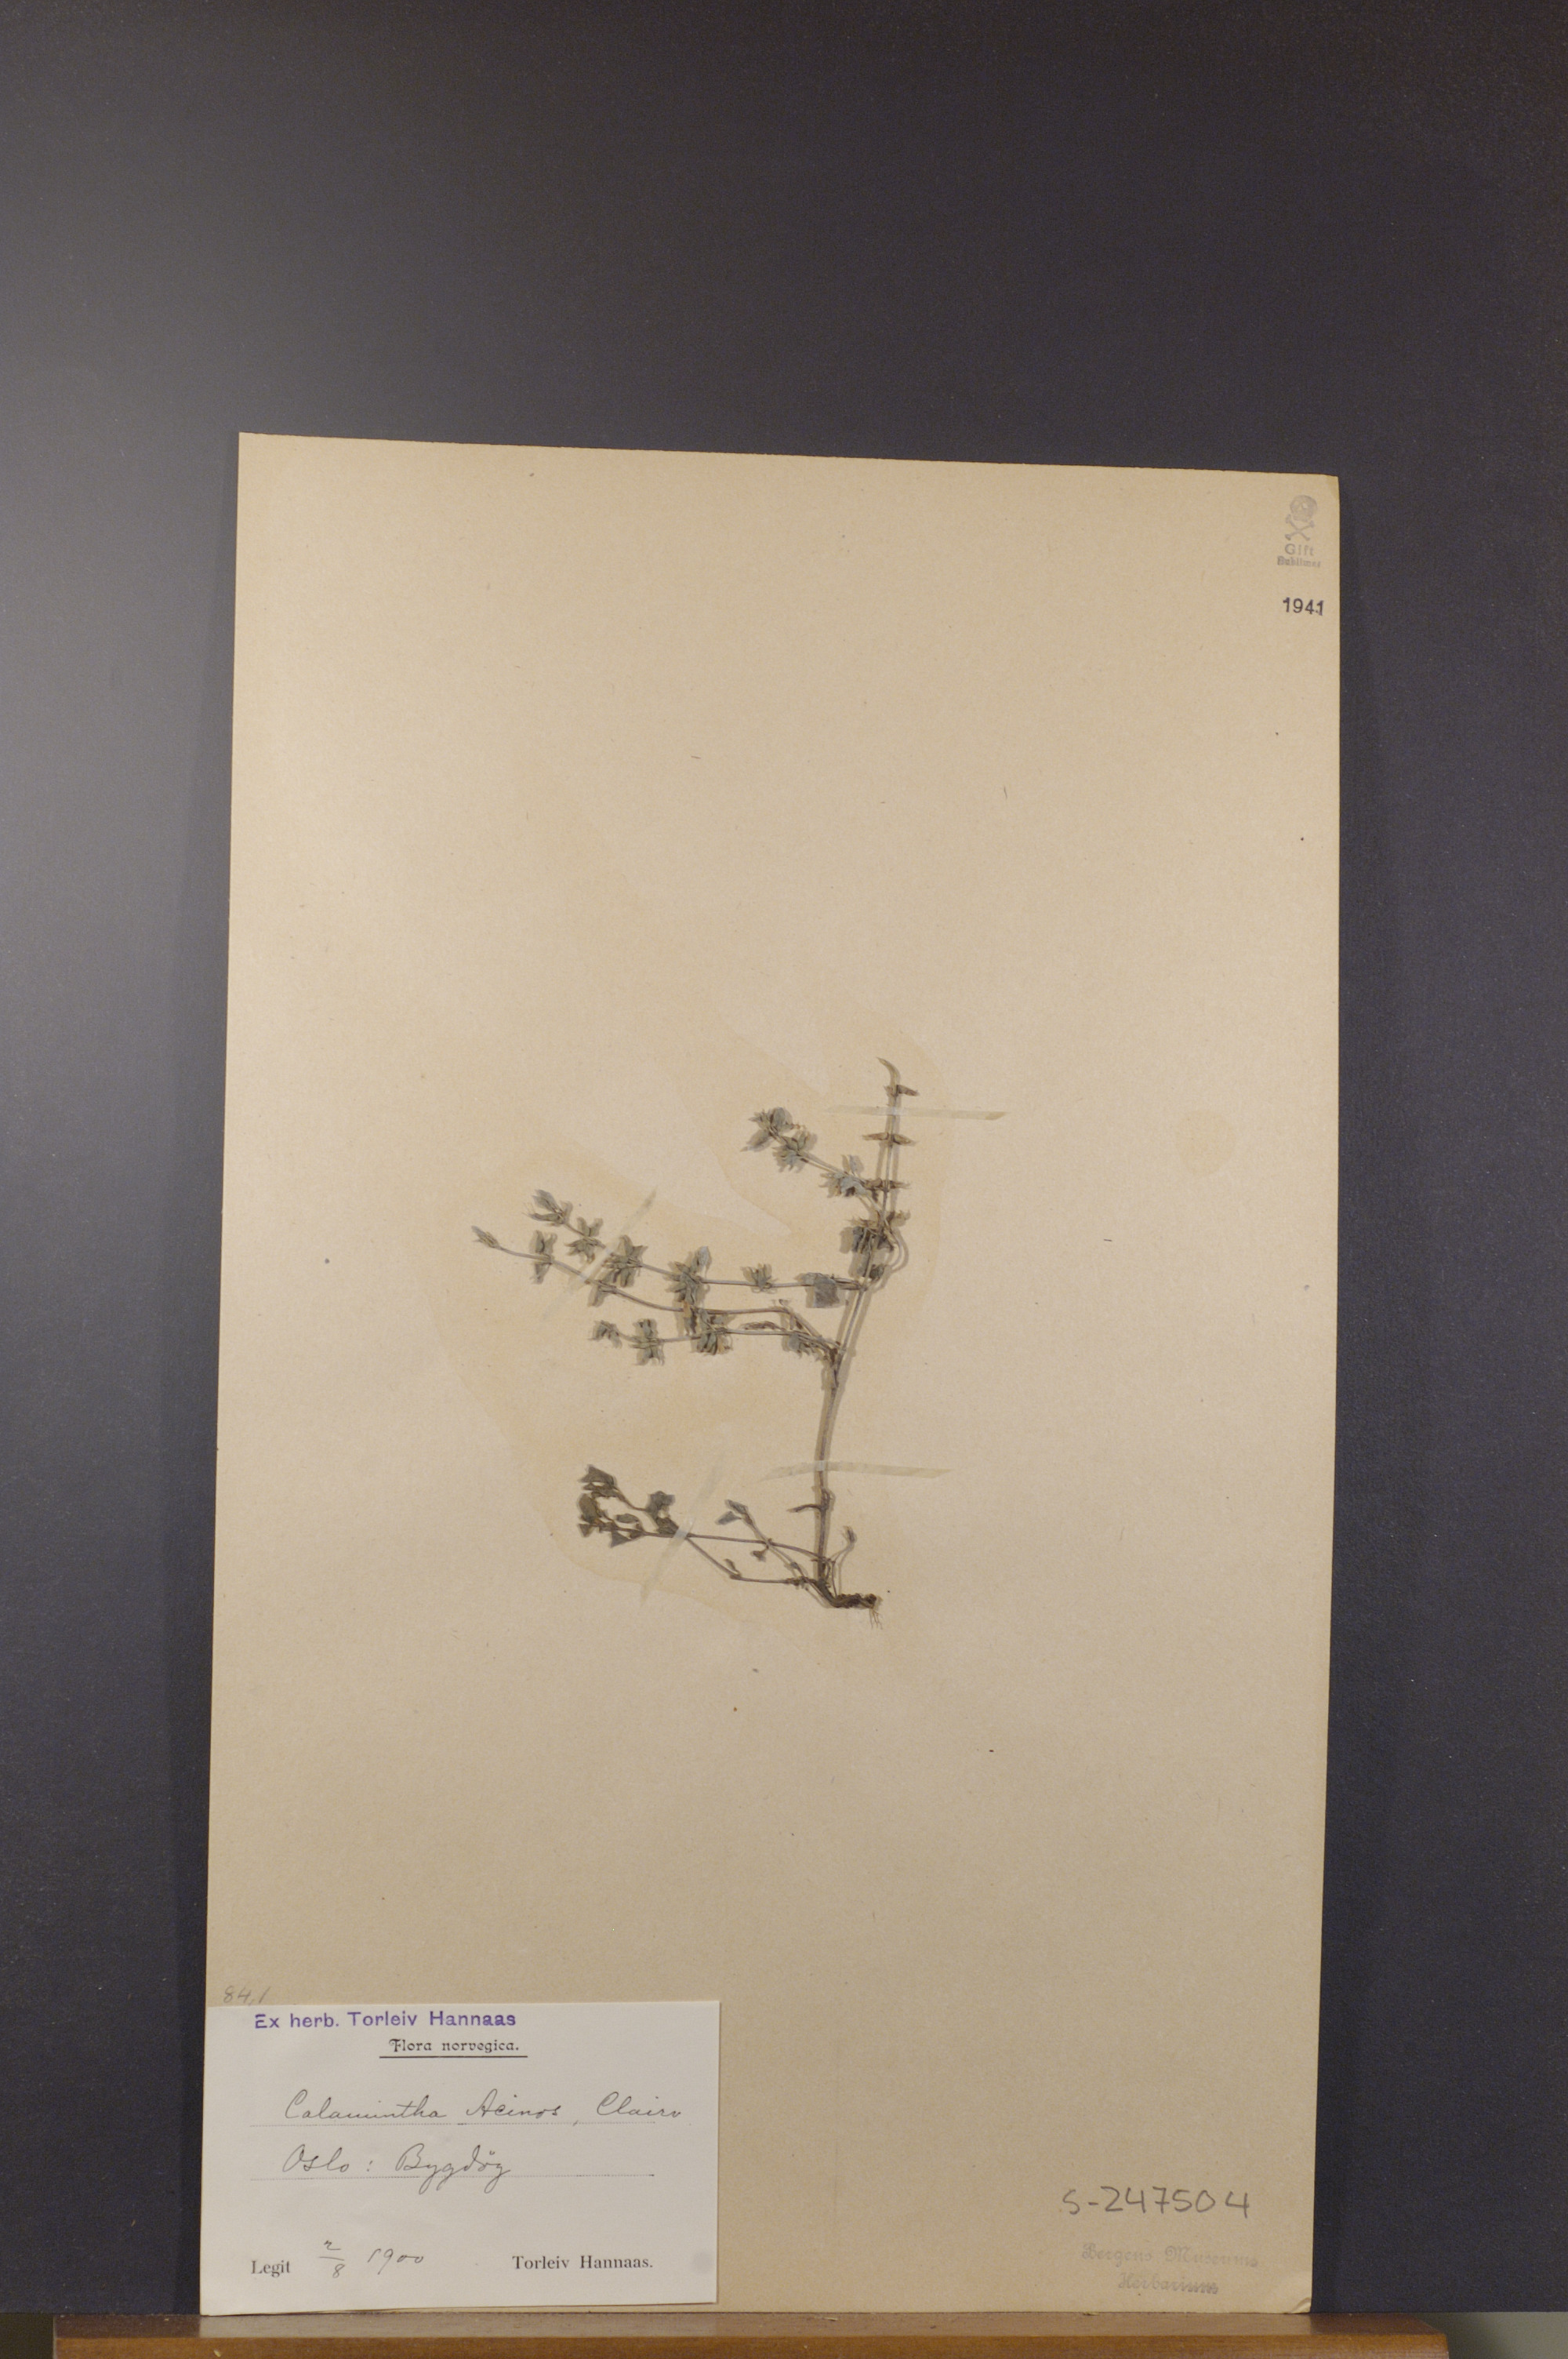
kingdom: Plantae
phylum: Tracheophyta
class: Magnoliopsida
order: Lamiales
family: Lamiaceae
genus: Clinopodium
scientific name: Clinopodium acinos
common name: Basil thyme
